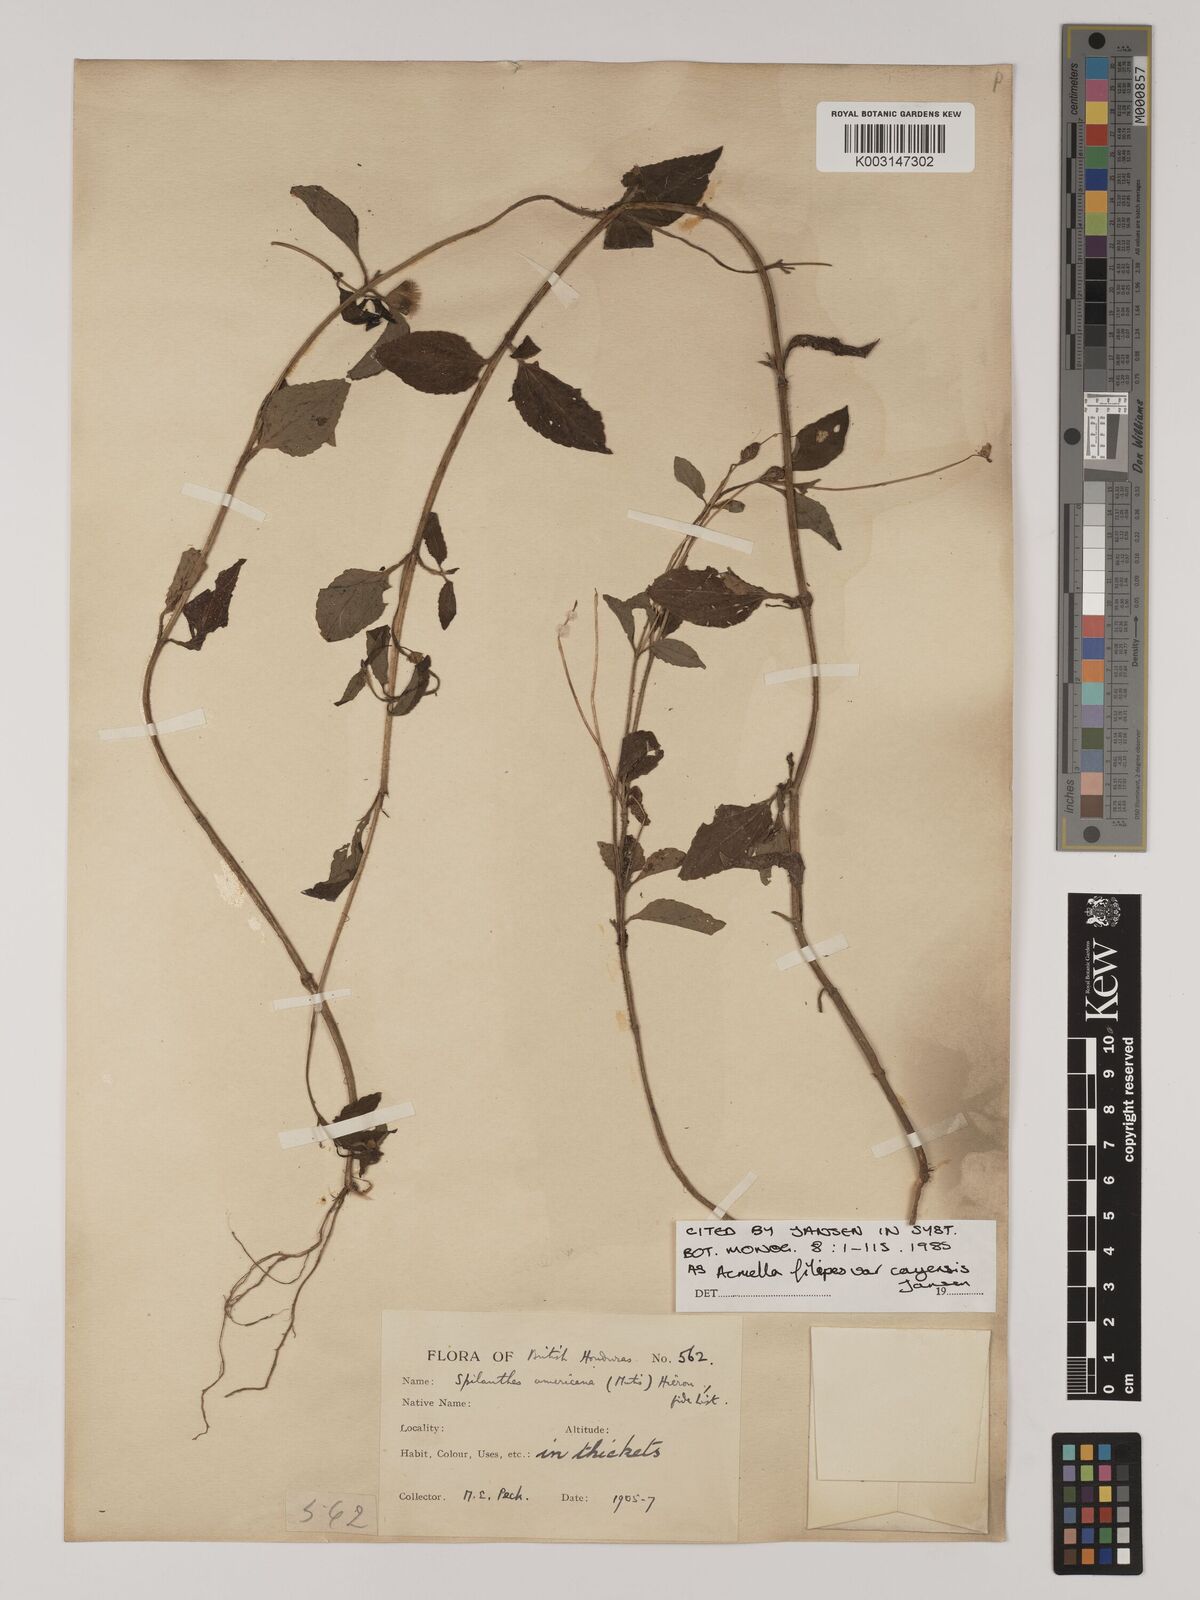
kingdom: Plantae
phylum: Tracheophyta
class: Magnoliopsida
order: Asterales
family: Asteraceae
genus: Acmella
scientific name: Acmella filipes
